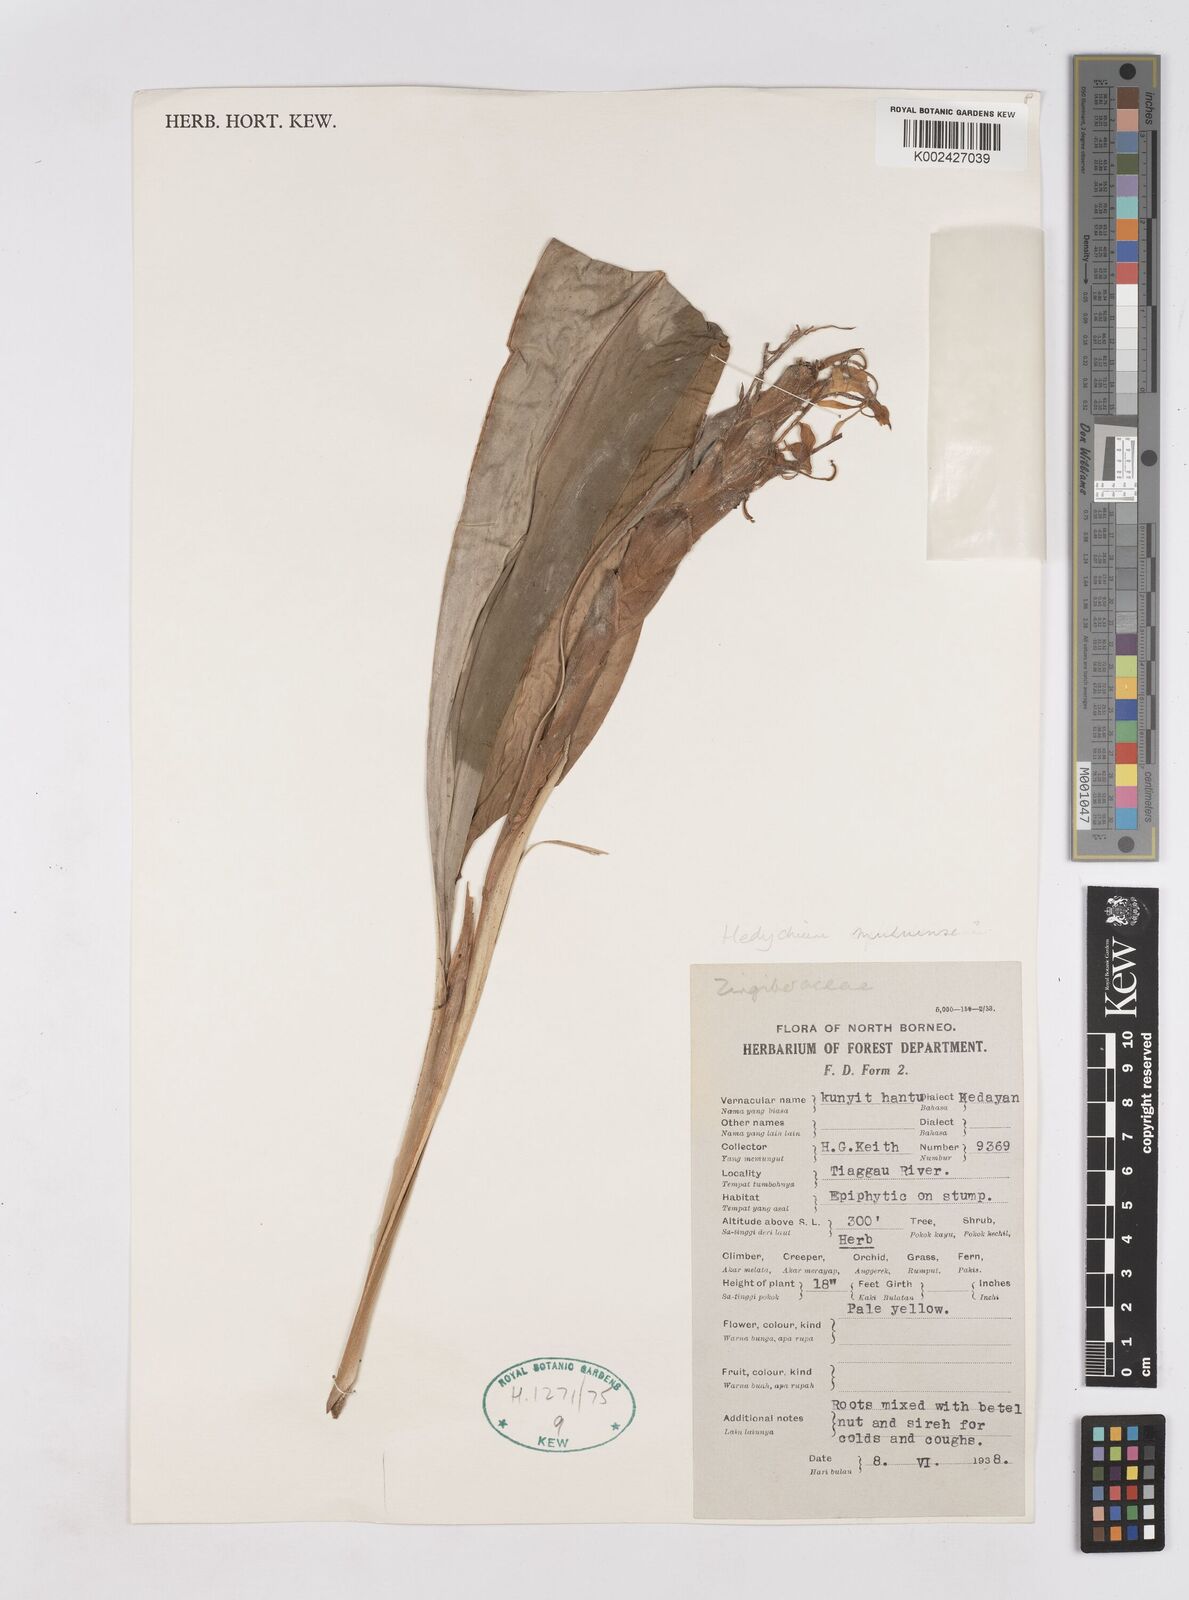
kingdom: Plantae
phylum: Tracheophyta
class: Liliopsida
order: Zingiberales
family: Zingiberaceae
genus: Hedychium
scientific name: Hedychium muluense
